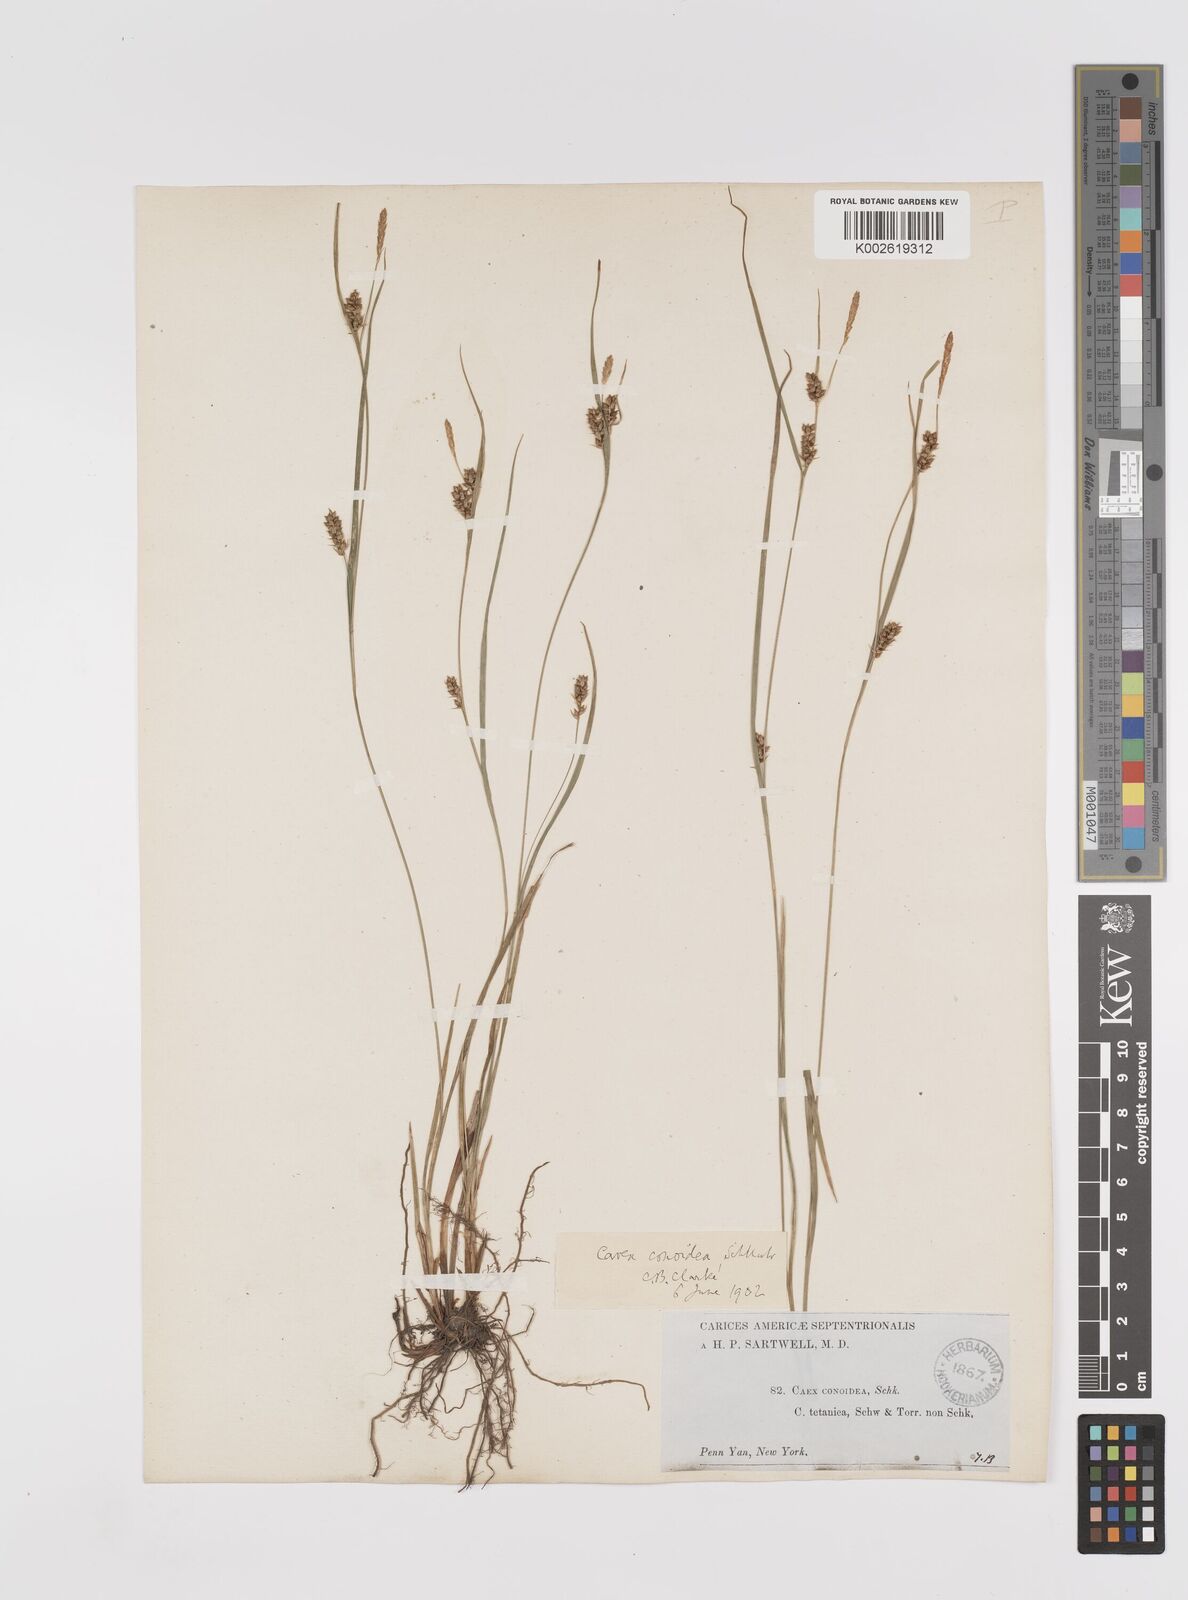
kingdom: Plantae
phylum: Tracheophyta
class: Liliopsida
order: Poales
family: Cyperaceae
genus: Carex
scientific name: Carex conoidea
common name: Cone shaped sedge
